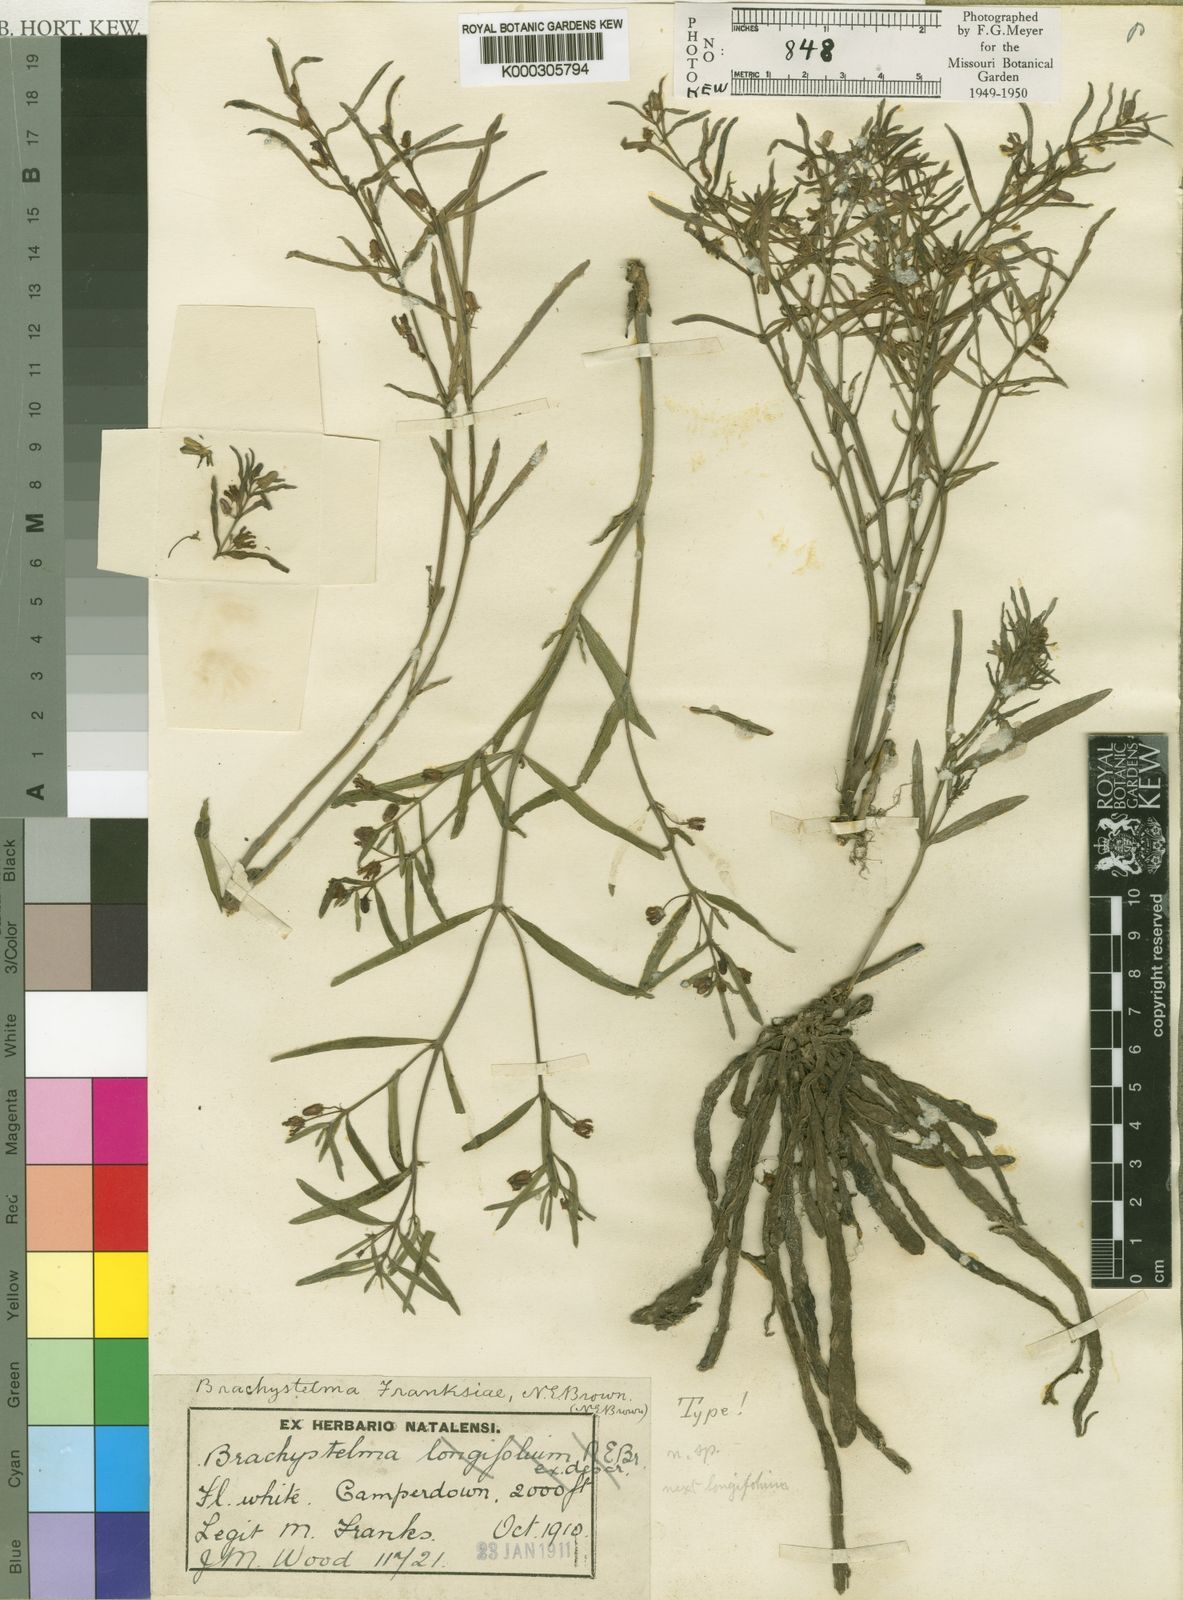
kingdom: Plantae
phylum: Tracheophyta
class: Magnoliopsida
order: Gentianales
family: Apocynaceae
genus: Ceropegia
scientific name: Ceropegia franksiae
